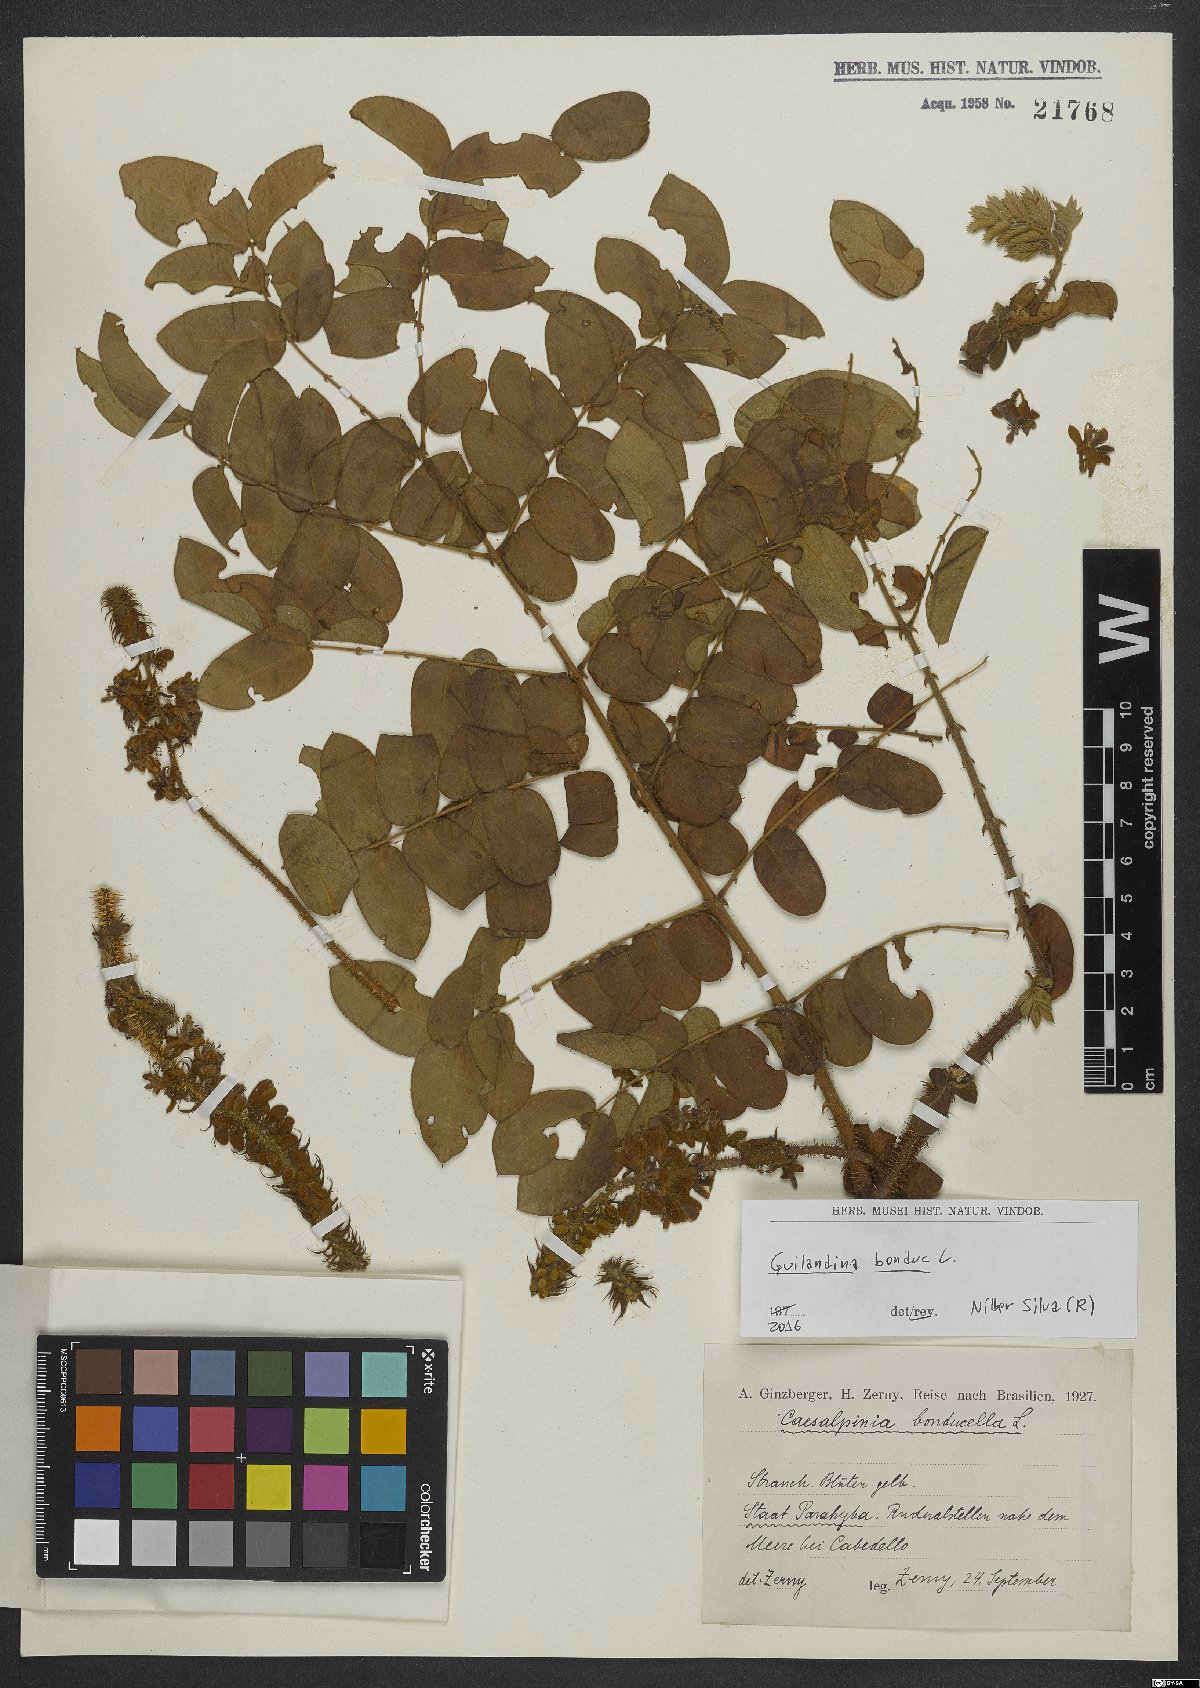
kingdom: Plantae
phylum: Tracheophyta
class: Magnoliopsida
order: Fabales
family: Fabaceae
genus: Guilandina
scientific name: Guilandina bonduc
